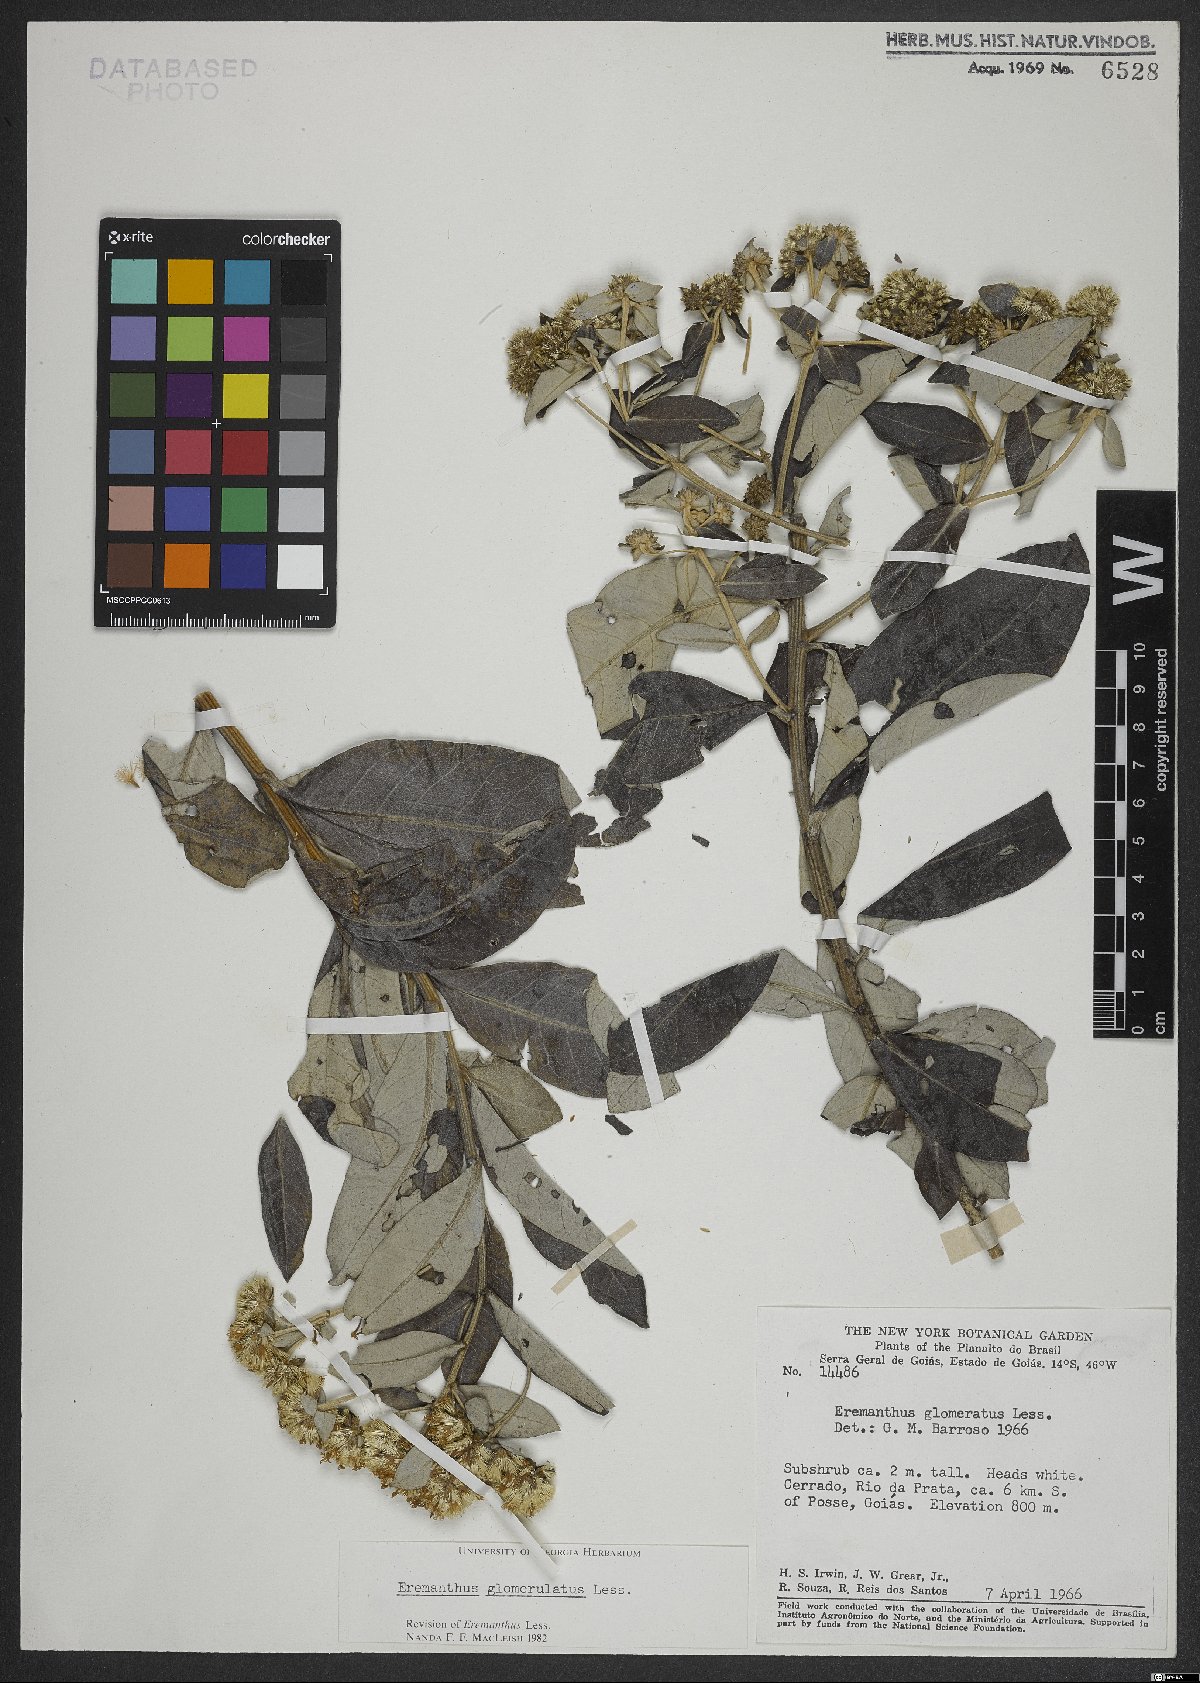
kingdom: Plantae
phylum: Tracheophyta
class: Magnoliopsida
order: Asterales
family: Asteraceae
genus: Cronquistianthus
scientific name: Cronquistianthus glomeratus
